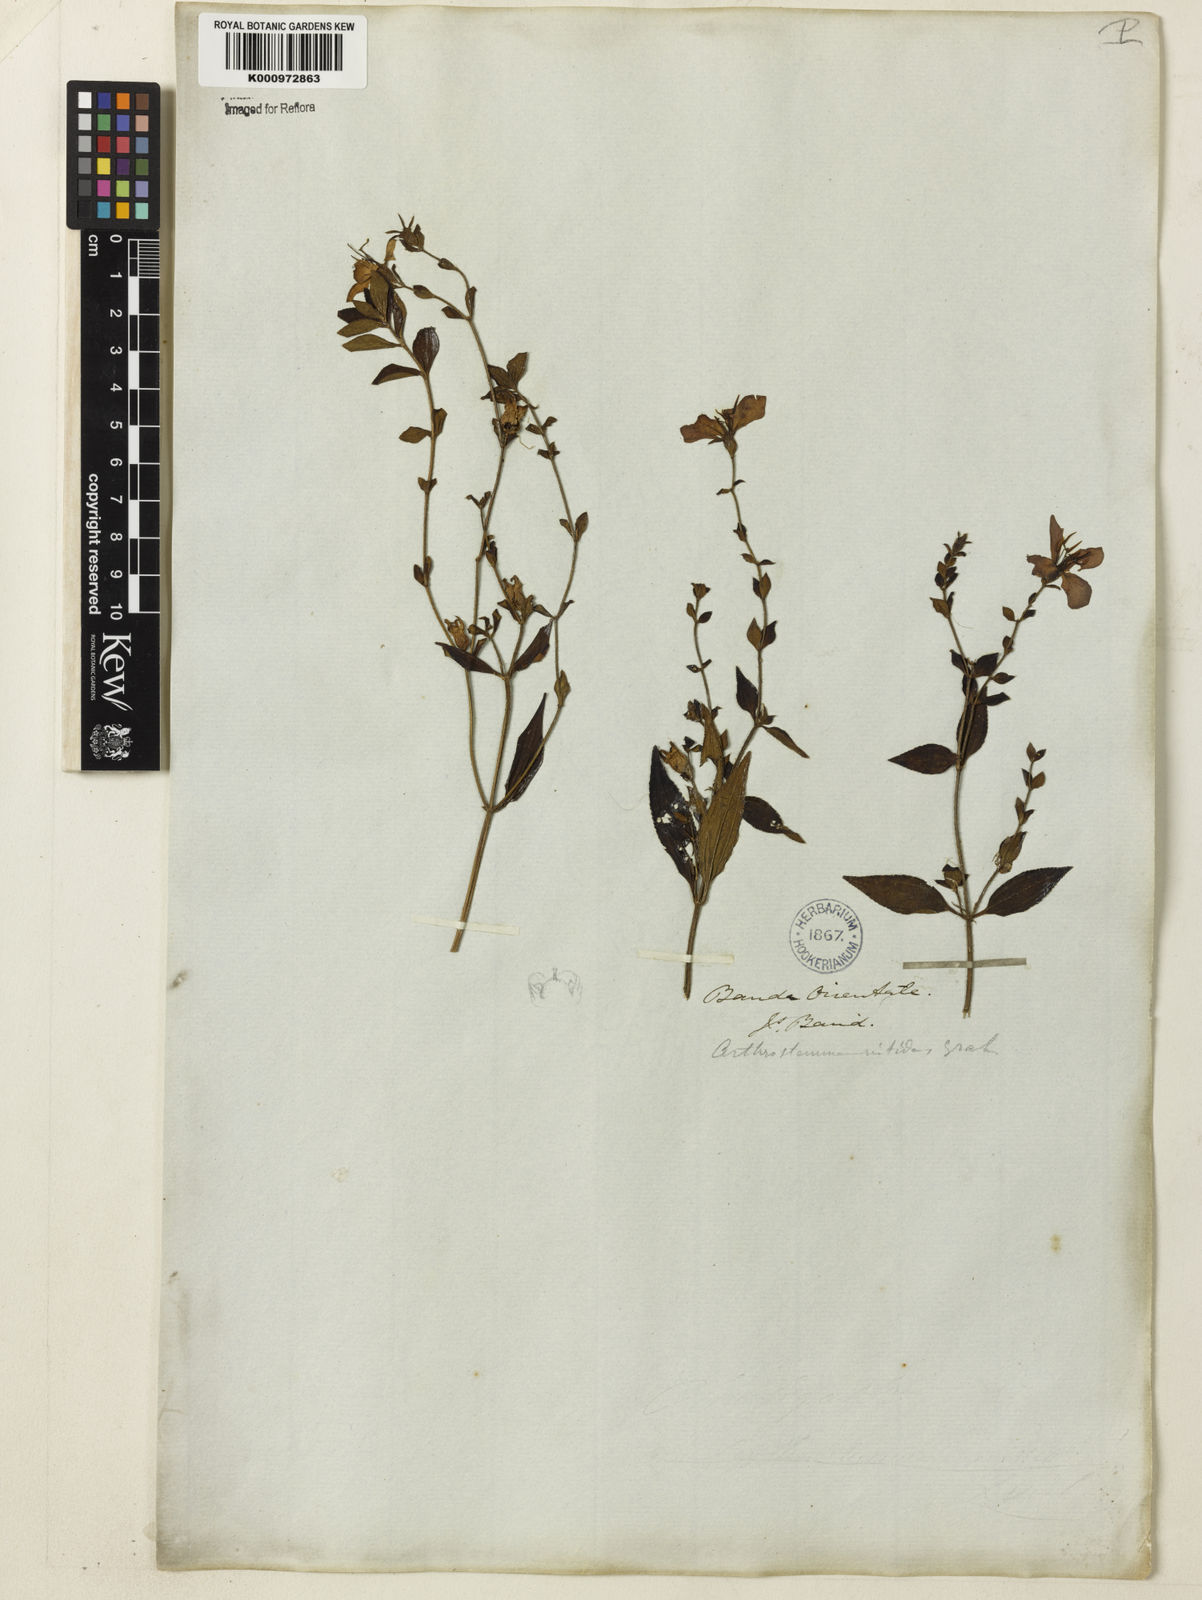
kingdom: Plantae
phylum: Tracheophyta
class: Magnoliopsida
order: Myrtales
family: Melastomataceae
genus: Chaetogastra
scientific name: Chaetogastra nitida
